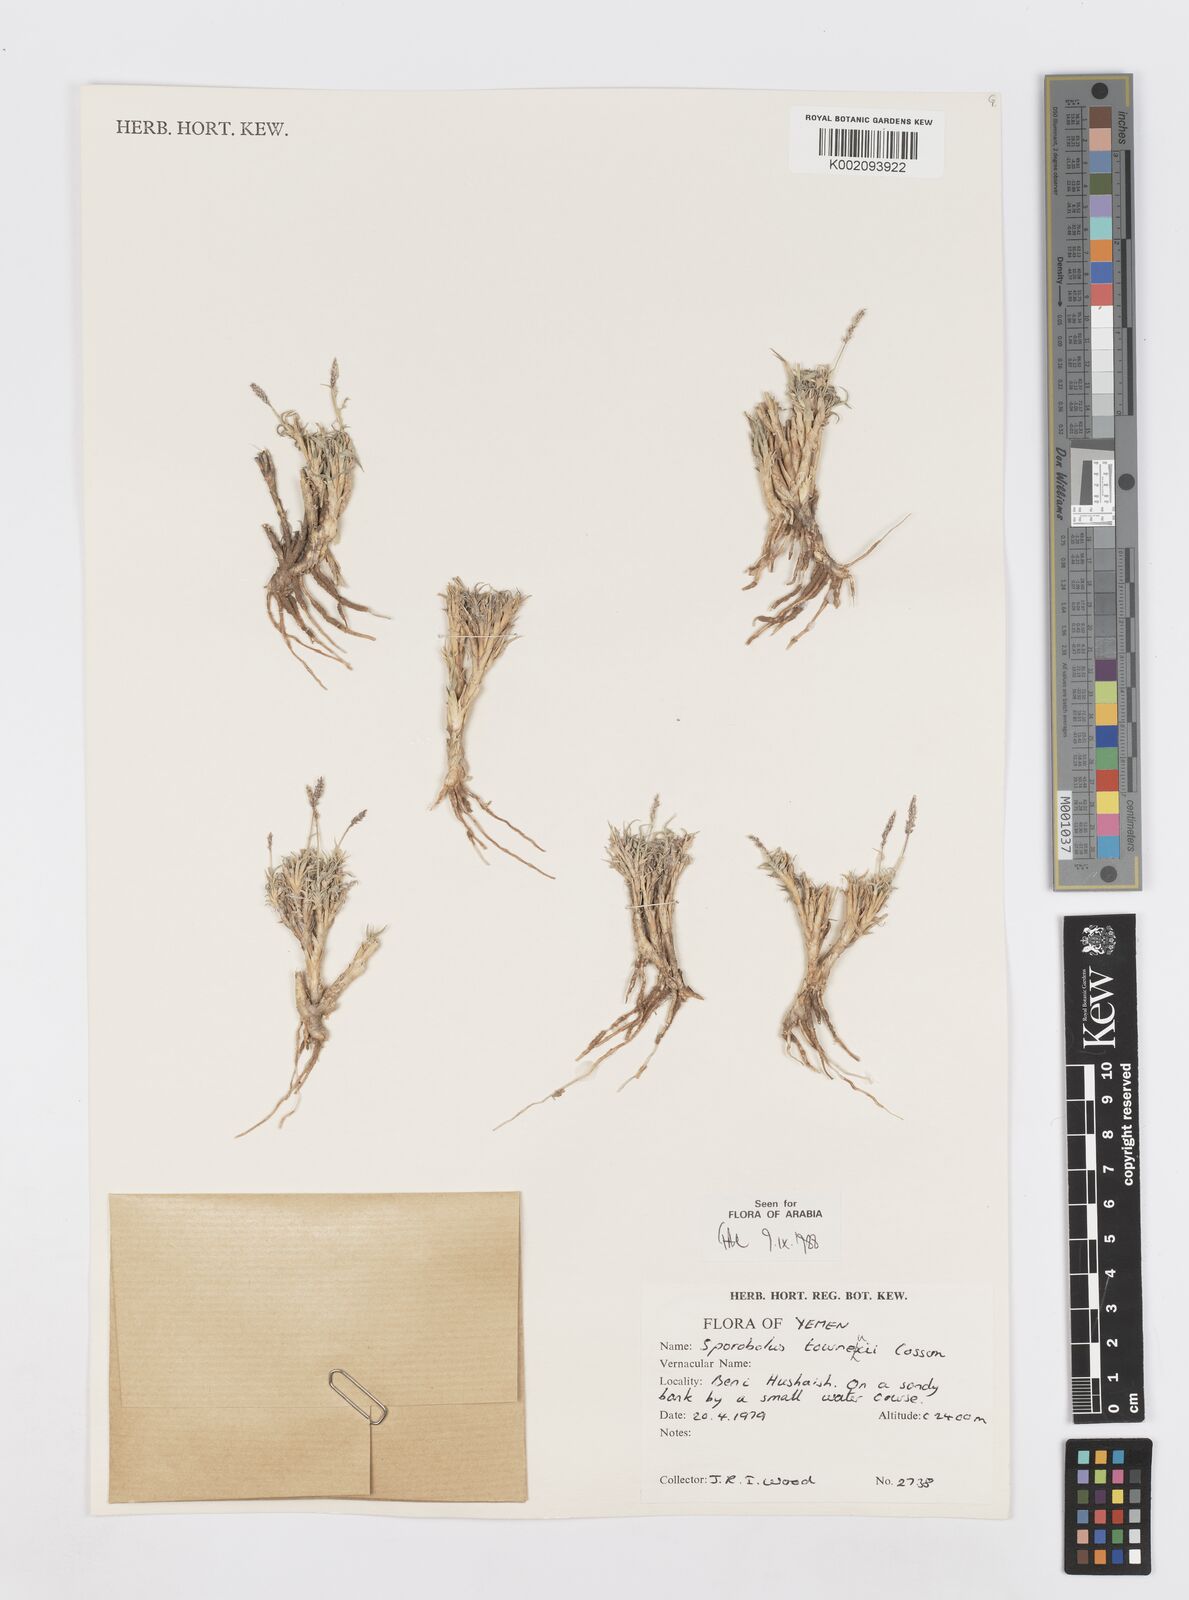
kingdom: Plantae
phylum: Tracheophyta
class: Liliopsida
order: Poales
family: Poaceae
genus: Sporobolus
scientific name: Sporobolus tourneuxii
